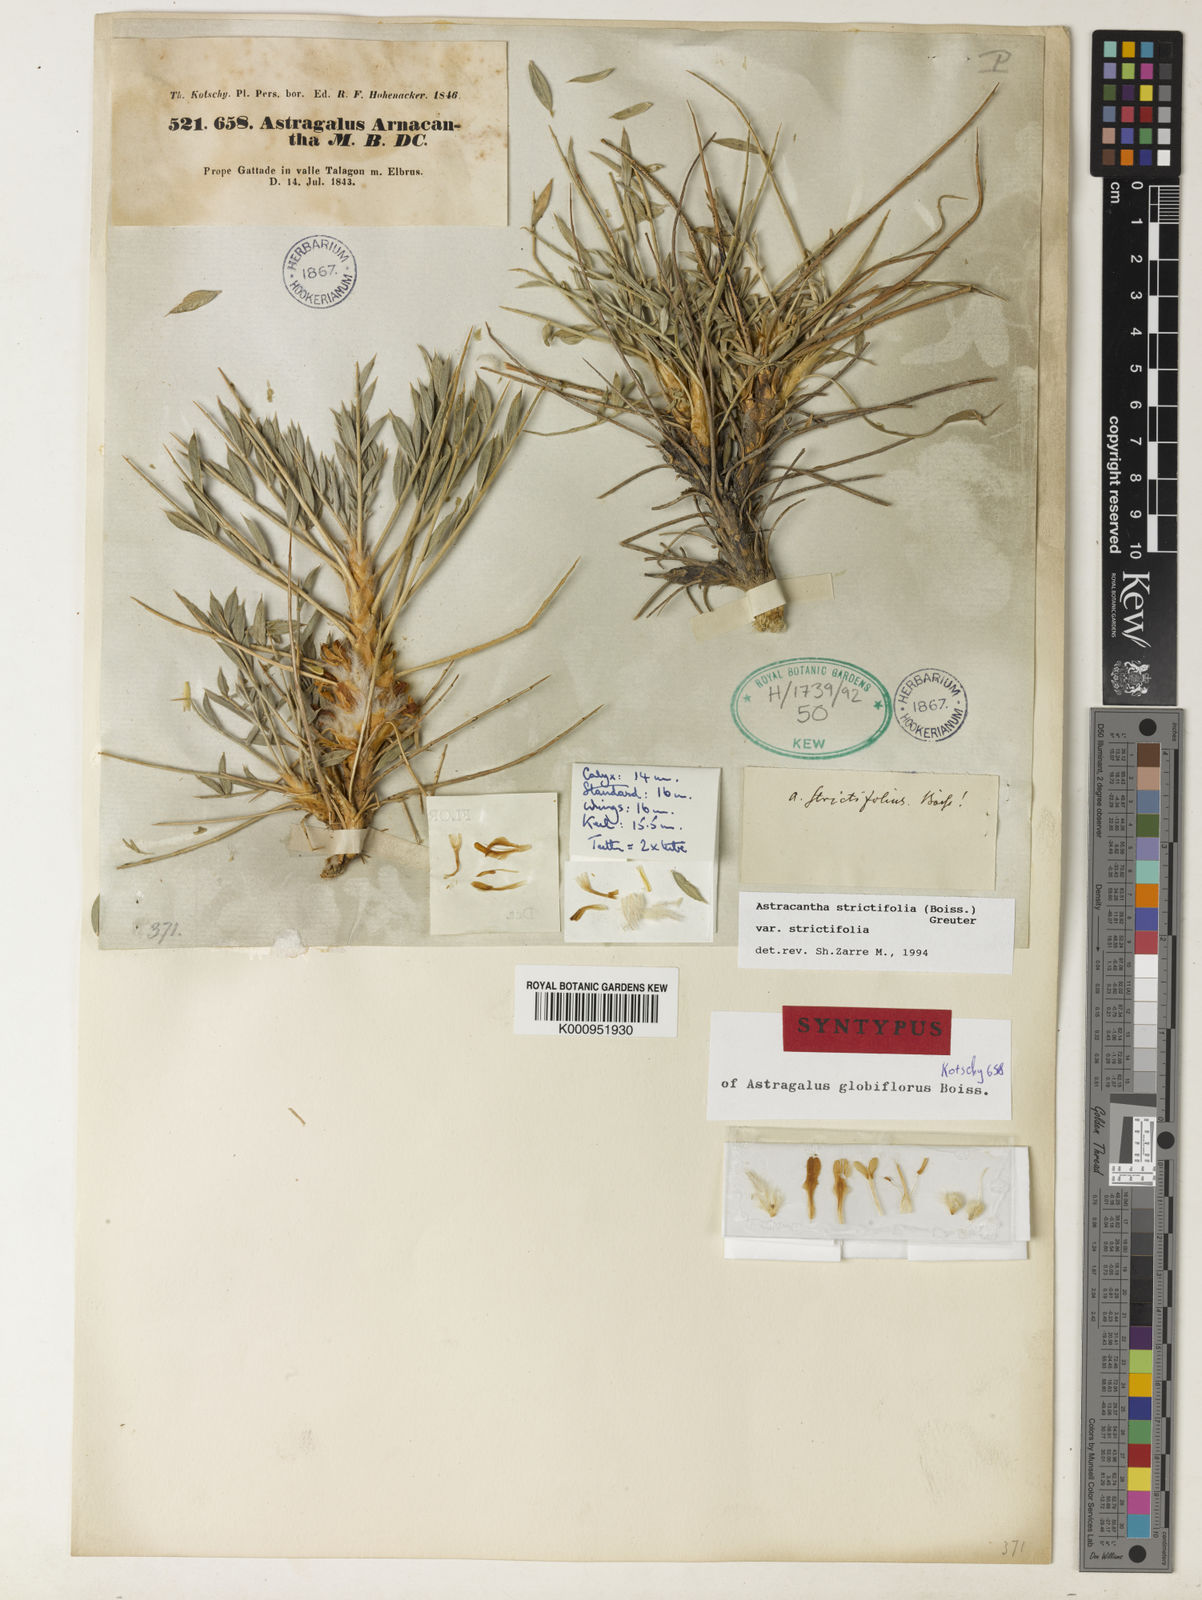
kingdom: Plantae
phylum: Tracheophyta
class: Magnoliopsida
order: Fabales
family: Fabaceae
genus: Astragalus
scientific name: Astragalus strictifolius
